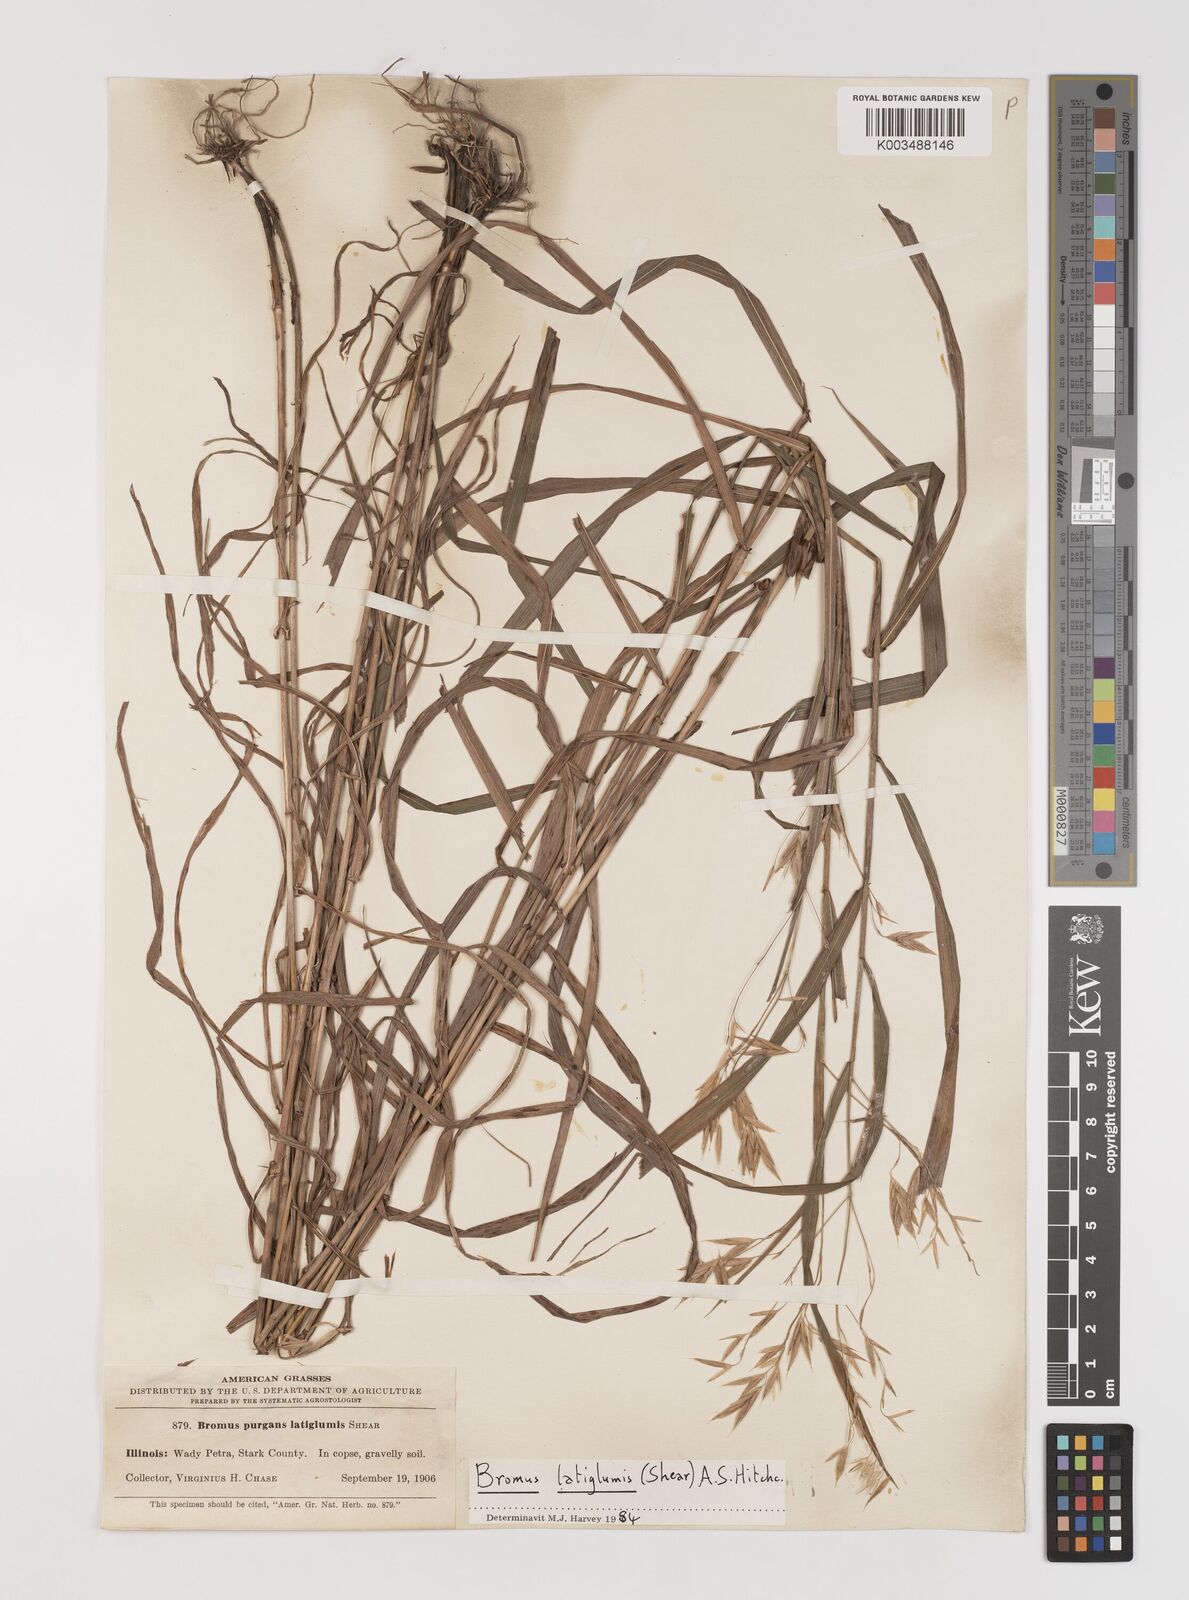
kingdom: Plantae
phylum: Tracheophyta
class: Liliopsida
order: Poales
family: Poaceae
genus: Bromus
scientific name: Bromus latiglumis
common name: Broad-glumed brome
